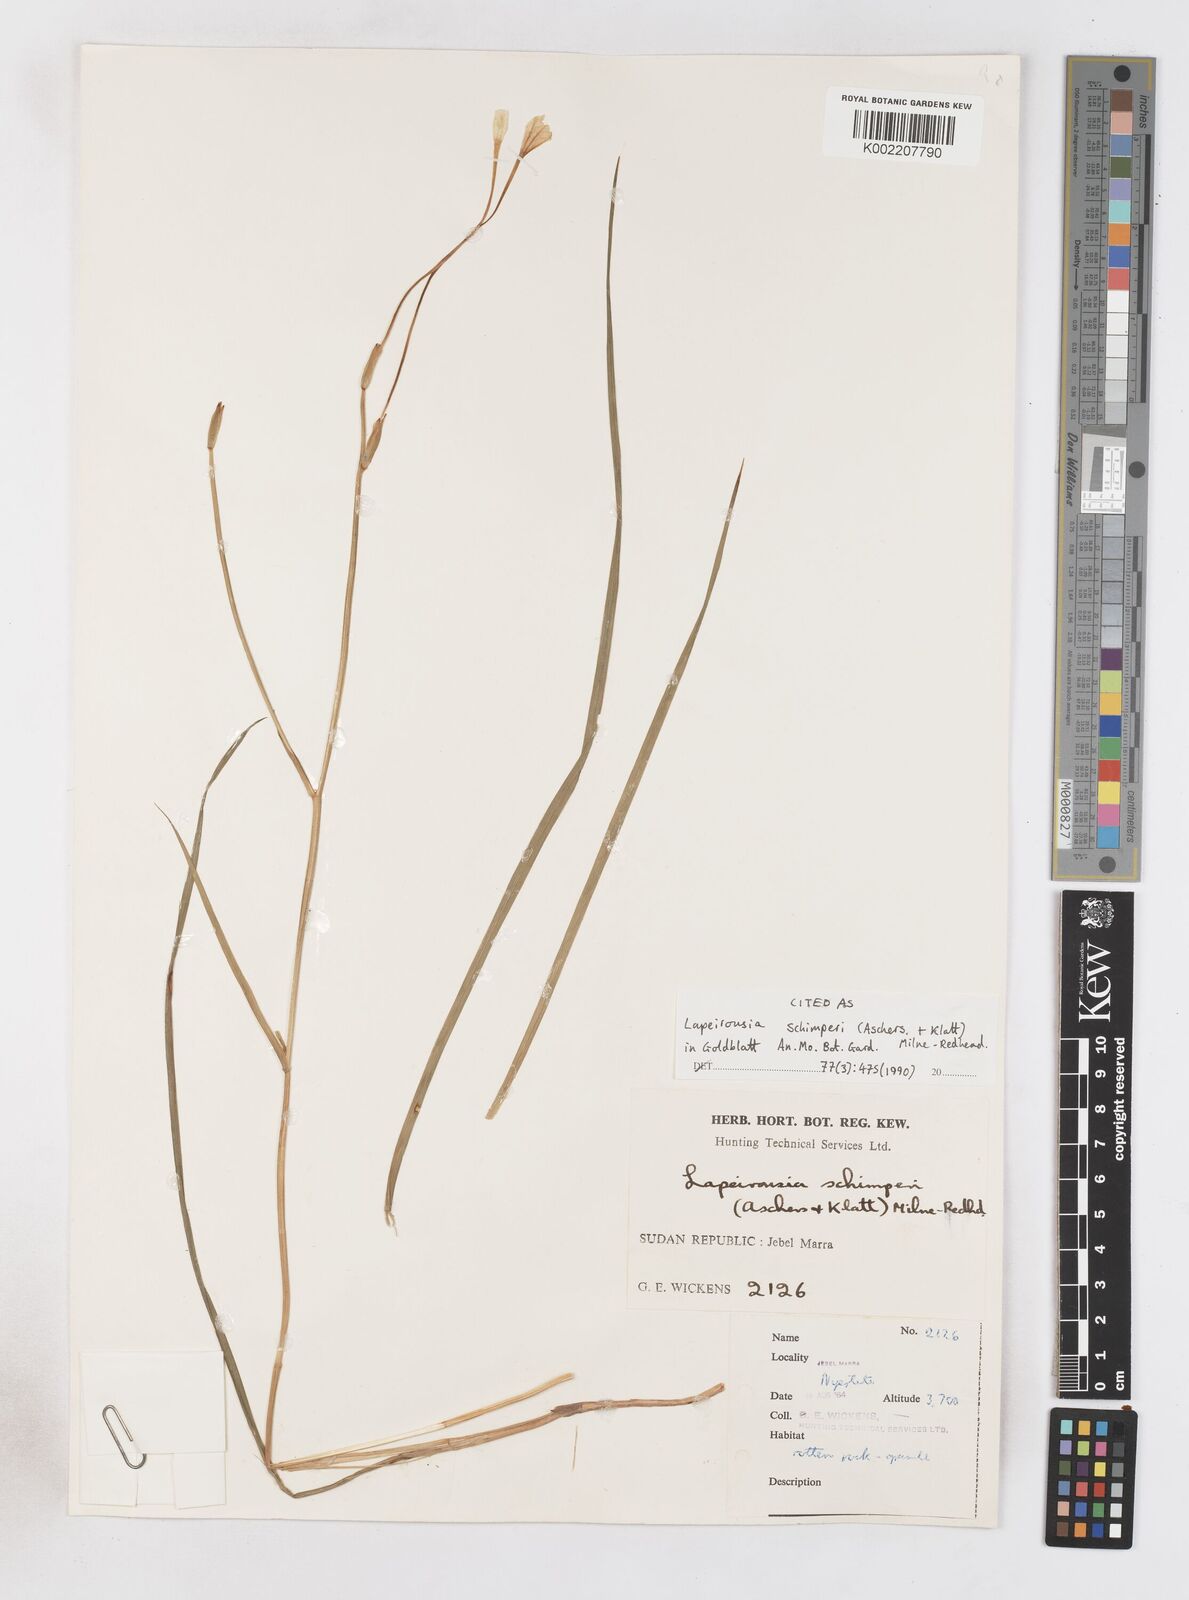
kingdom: Plantae
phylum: Tracheophyta
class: Liliopsida
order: Asparagales
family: Iridaceae
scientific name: Iridaceae
